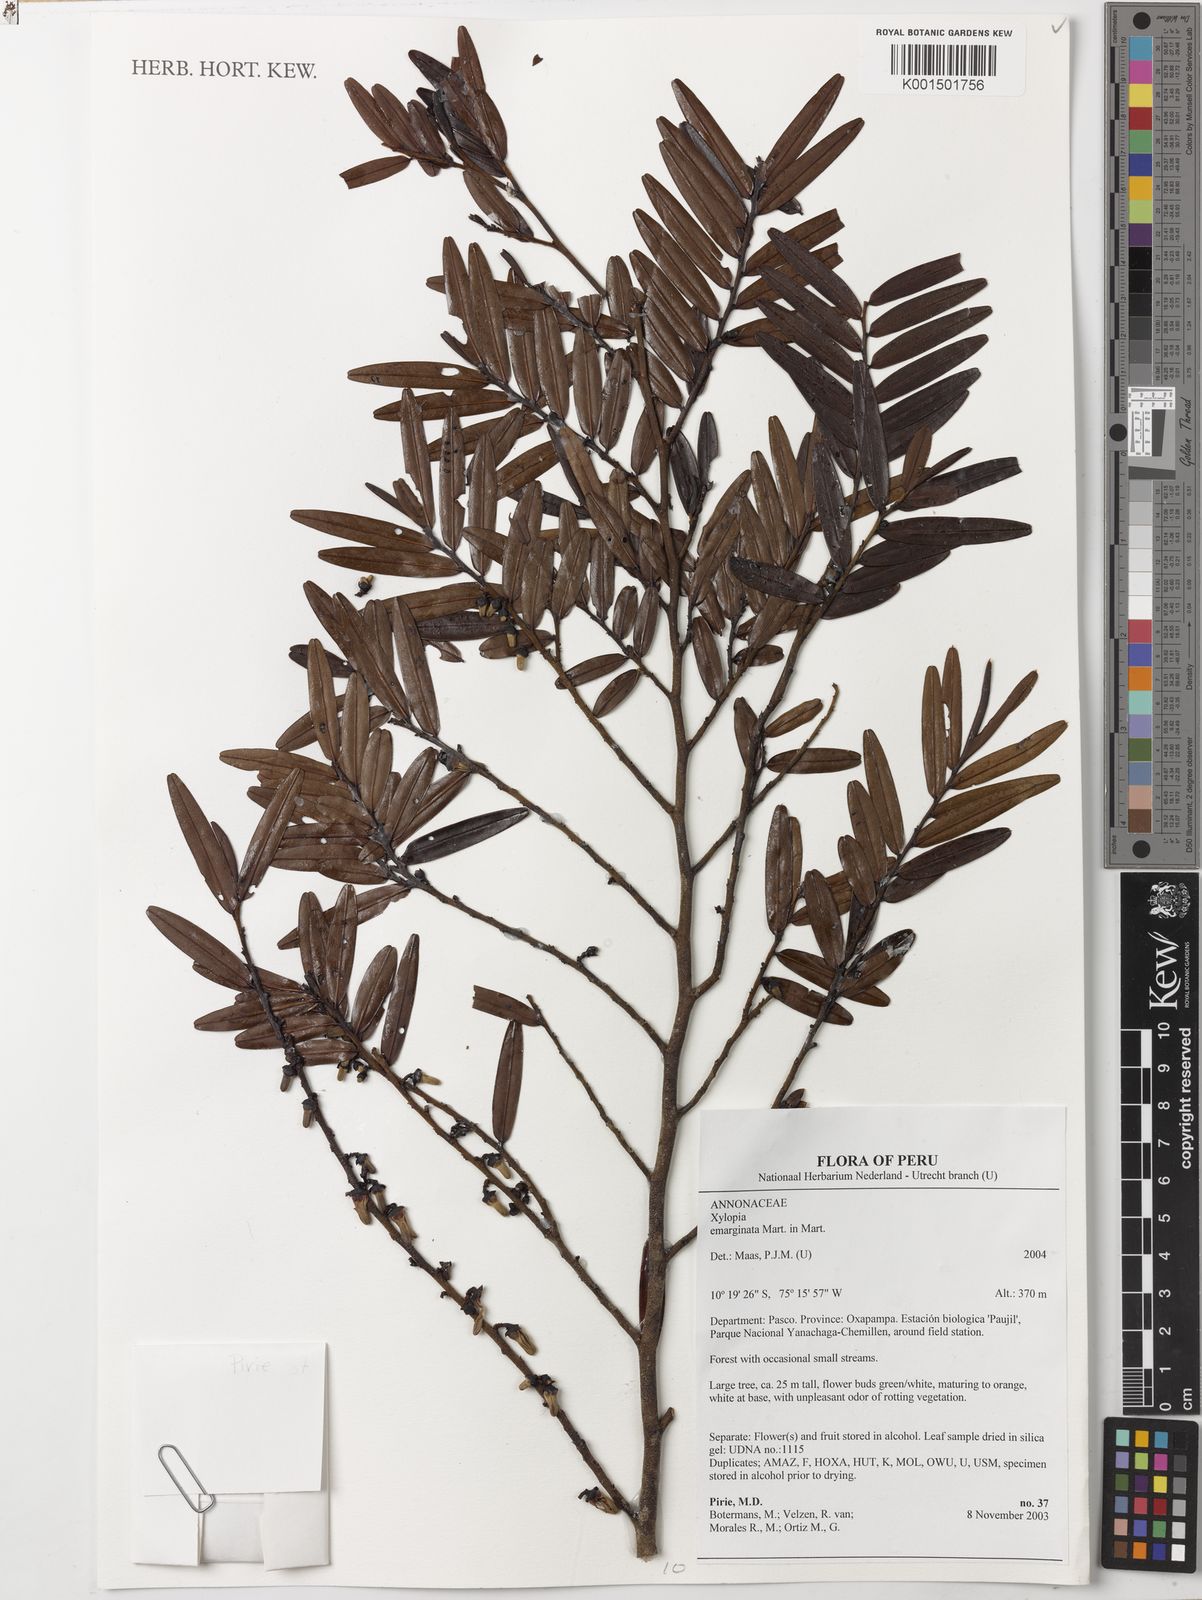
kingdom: Plantae
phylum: Tracheophyta
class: Magnoliopsida
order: Magnoliales
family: Annonaceae
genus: Xylopia
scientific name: Xylopia emarginata
